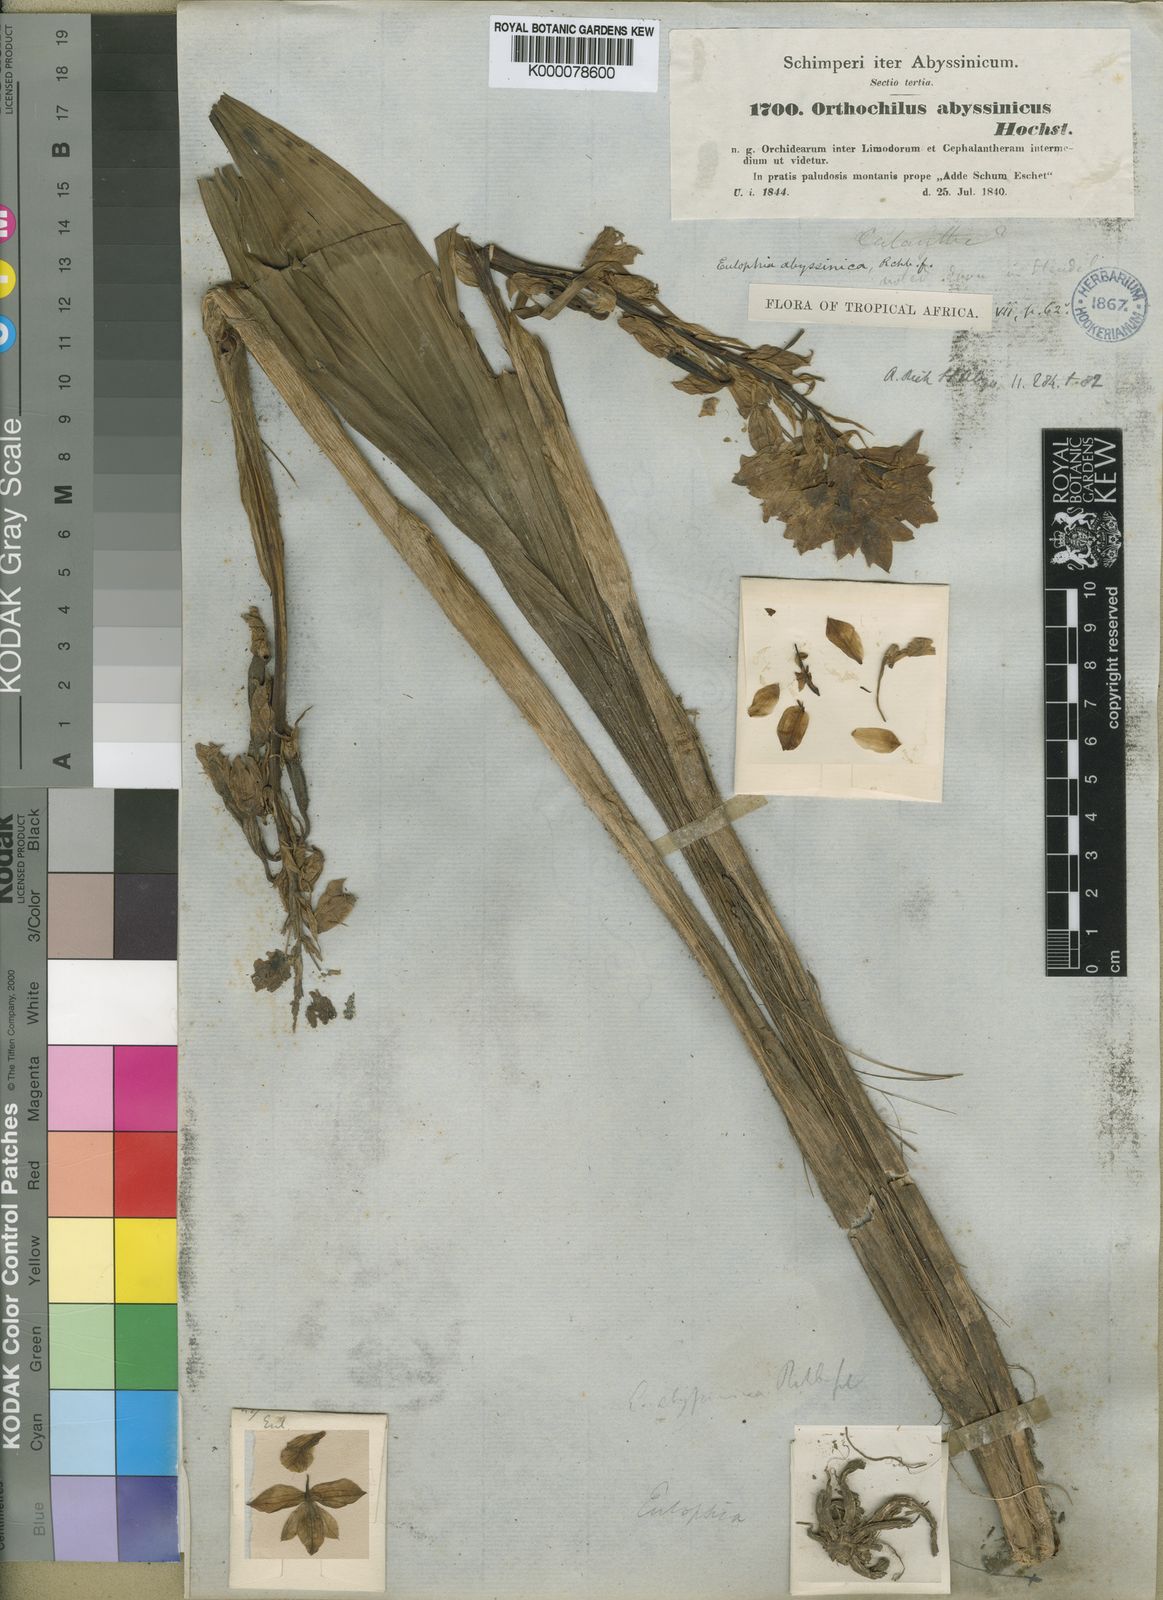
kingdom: Plantae
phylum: Tracheophyta
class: Liliopsida
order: Asparagales
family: Orchidaceae
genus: Eulophia
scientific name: Eulophia abyssinica
